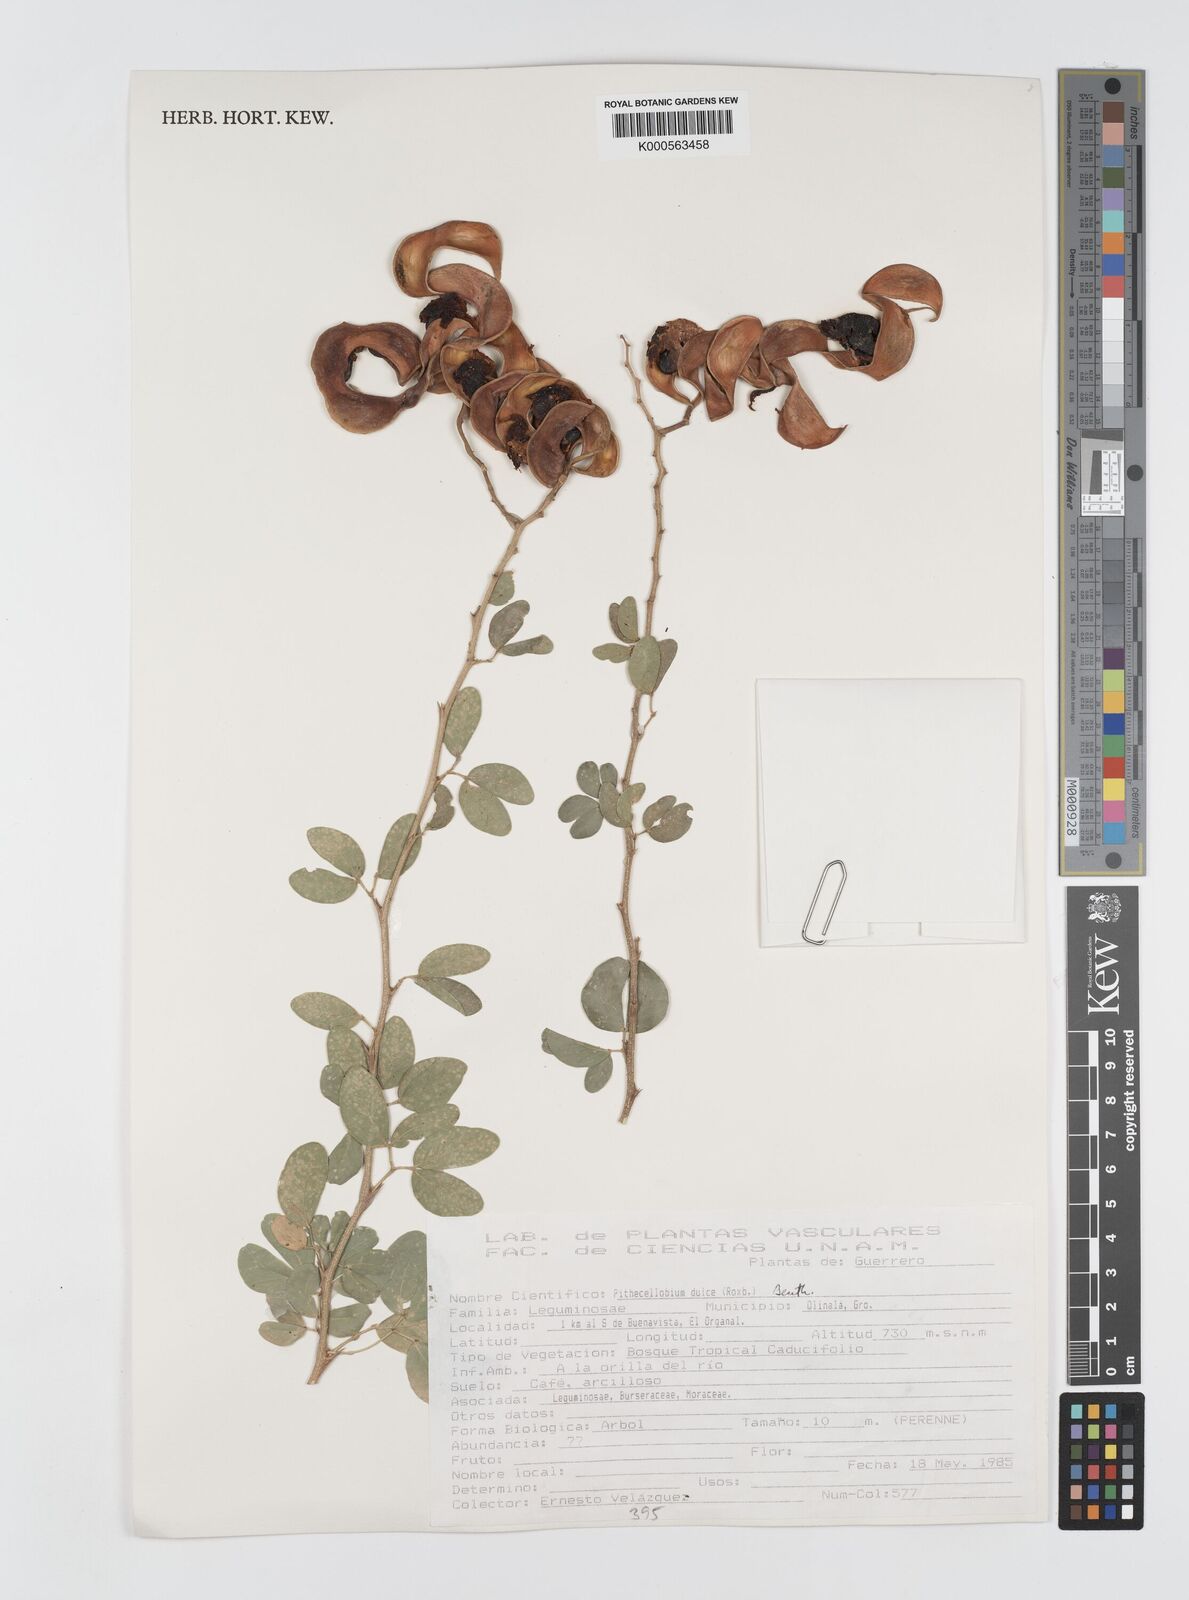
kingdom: Plantae
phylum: Tracheophyta
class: Magnoliopsida
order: Fabales
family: Fabaceae
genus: Pithecellobium
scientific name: Pithecellobium dulce
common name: Monkeypod
